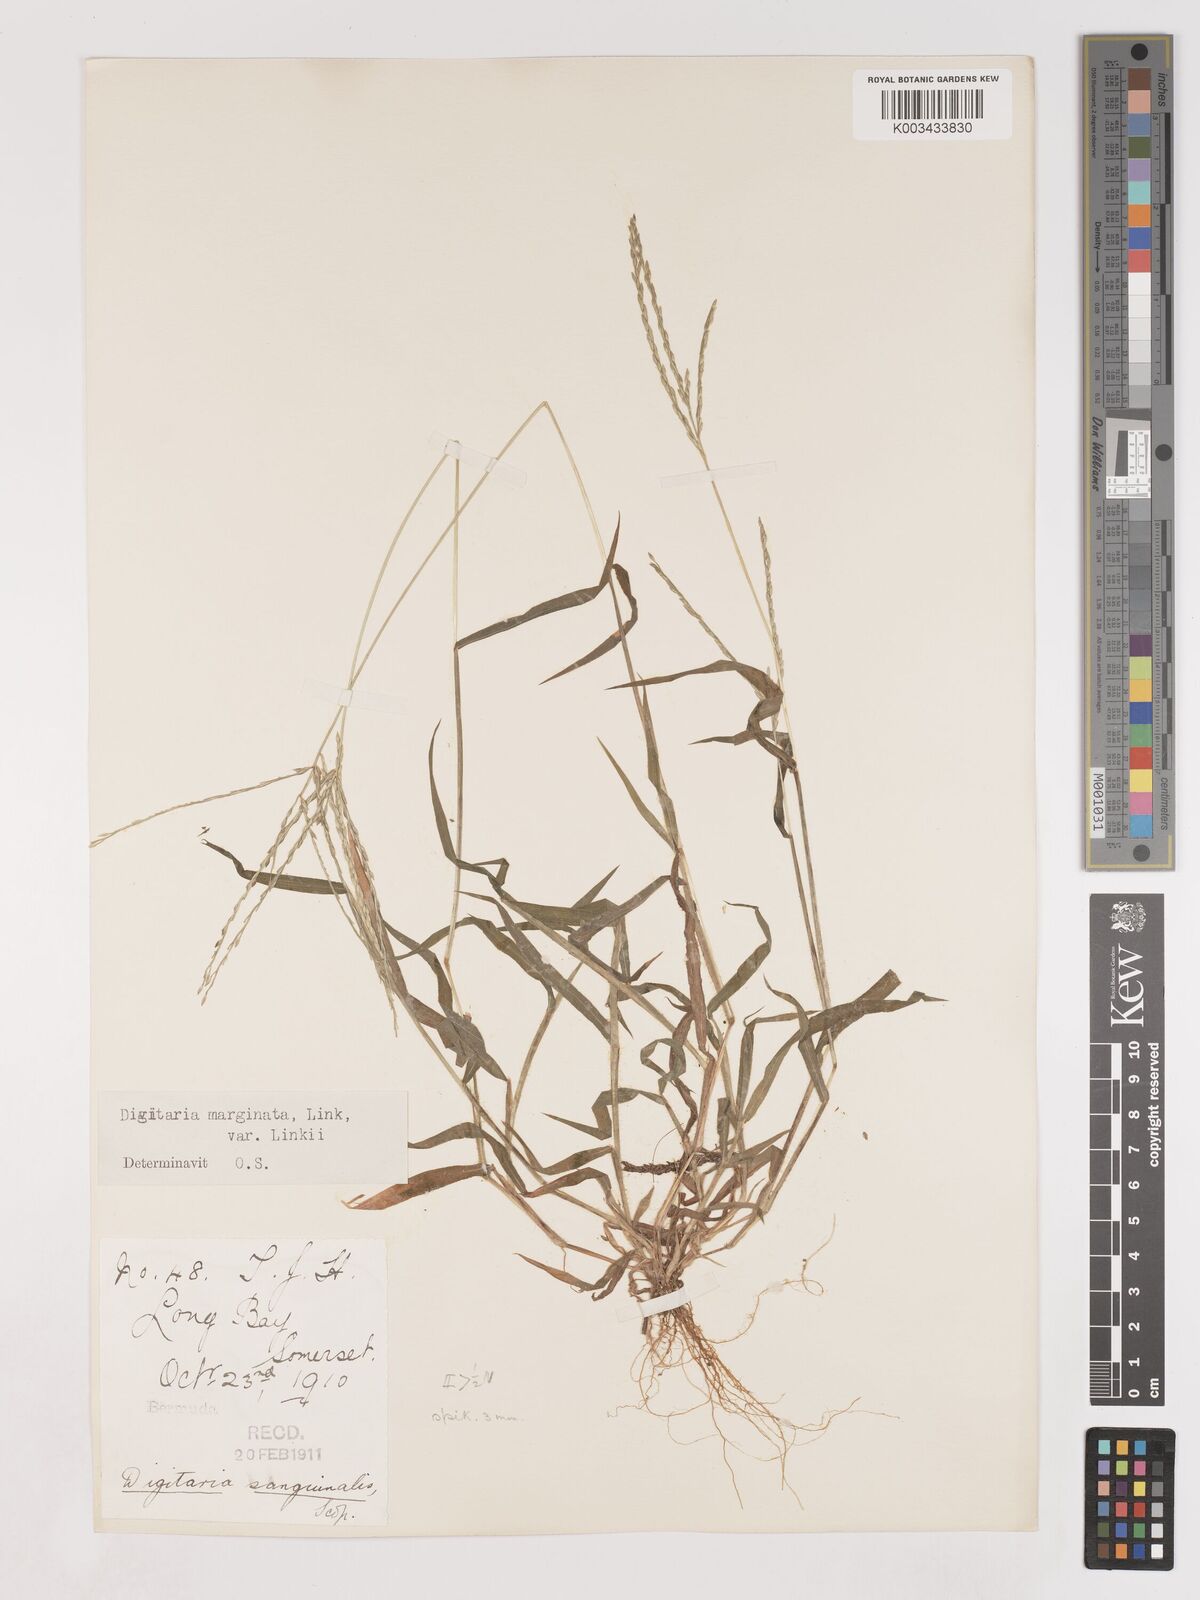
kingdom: Plantae
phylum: Tracheophyta
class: Liliopsida
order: Poales
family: Poaceae
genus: Digitaria
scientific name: Digitaria ciliaris
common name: Tropical finger-grass
